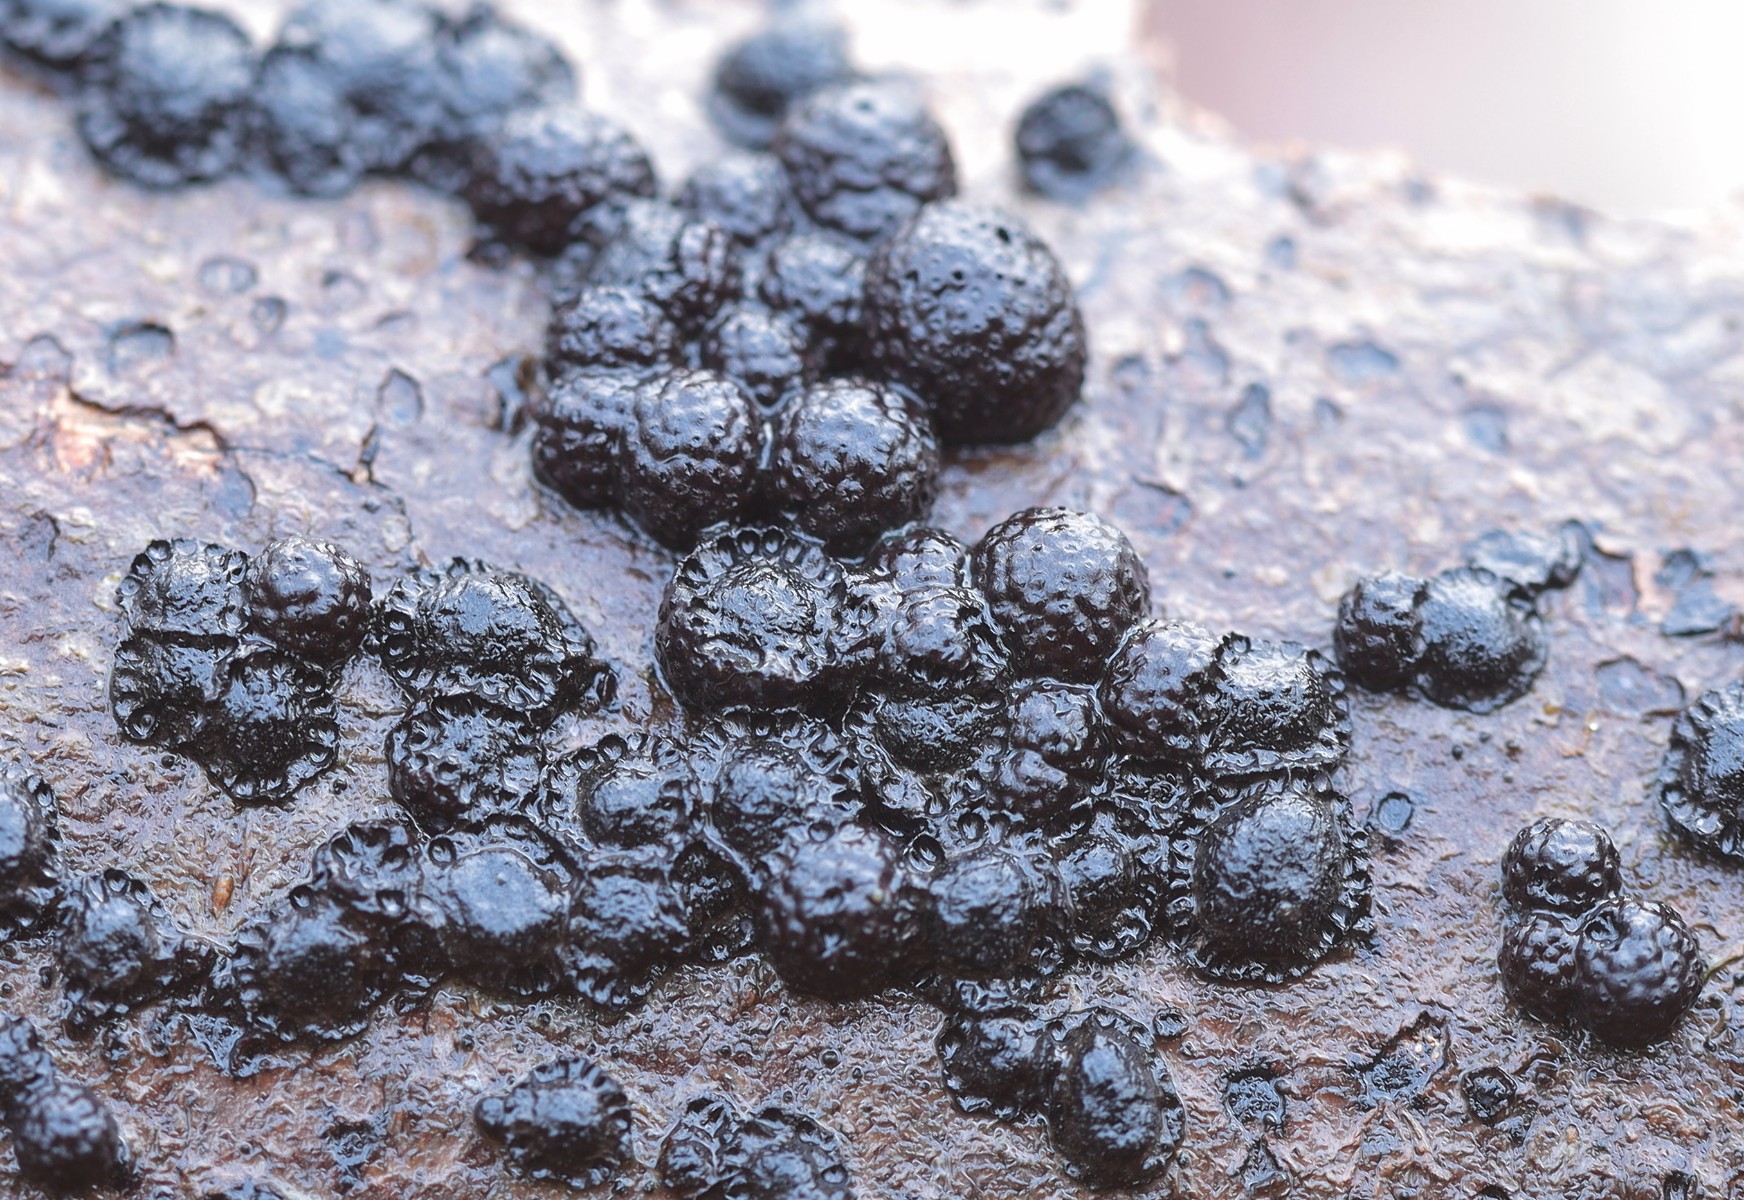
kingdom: Fungi
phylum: Ascomycota
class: Sordariomycetes
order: Xylariales
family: Hypoxylaceae
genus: Hypoxylon
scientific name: Hypoxylon fragiforme
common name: kuljordbær
